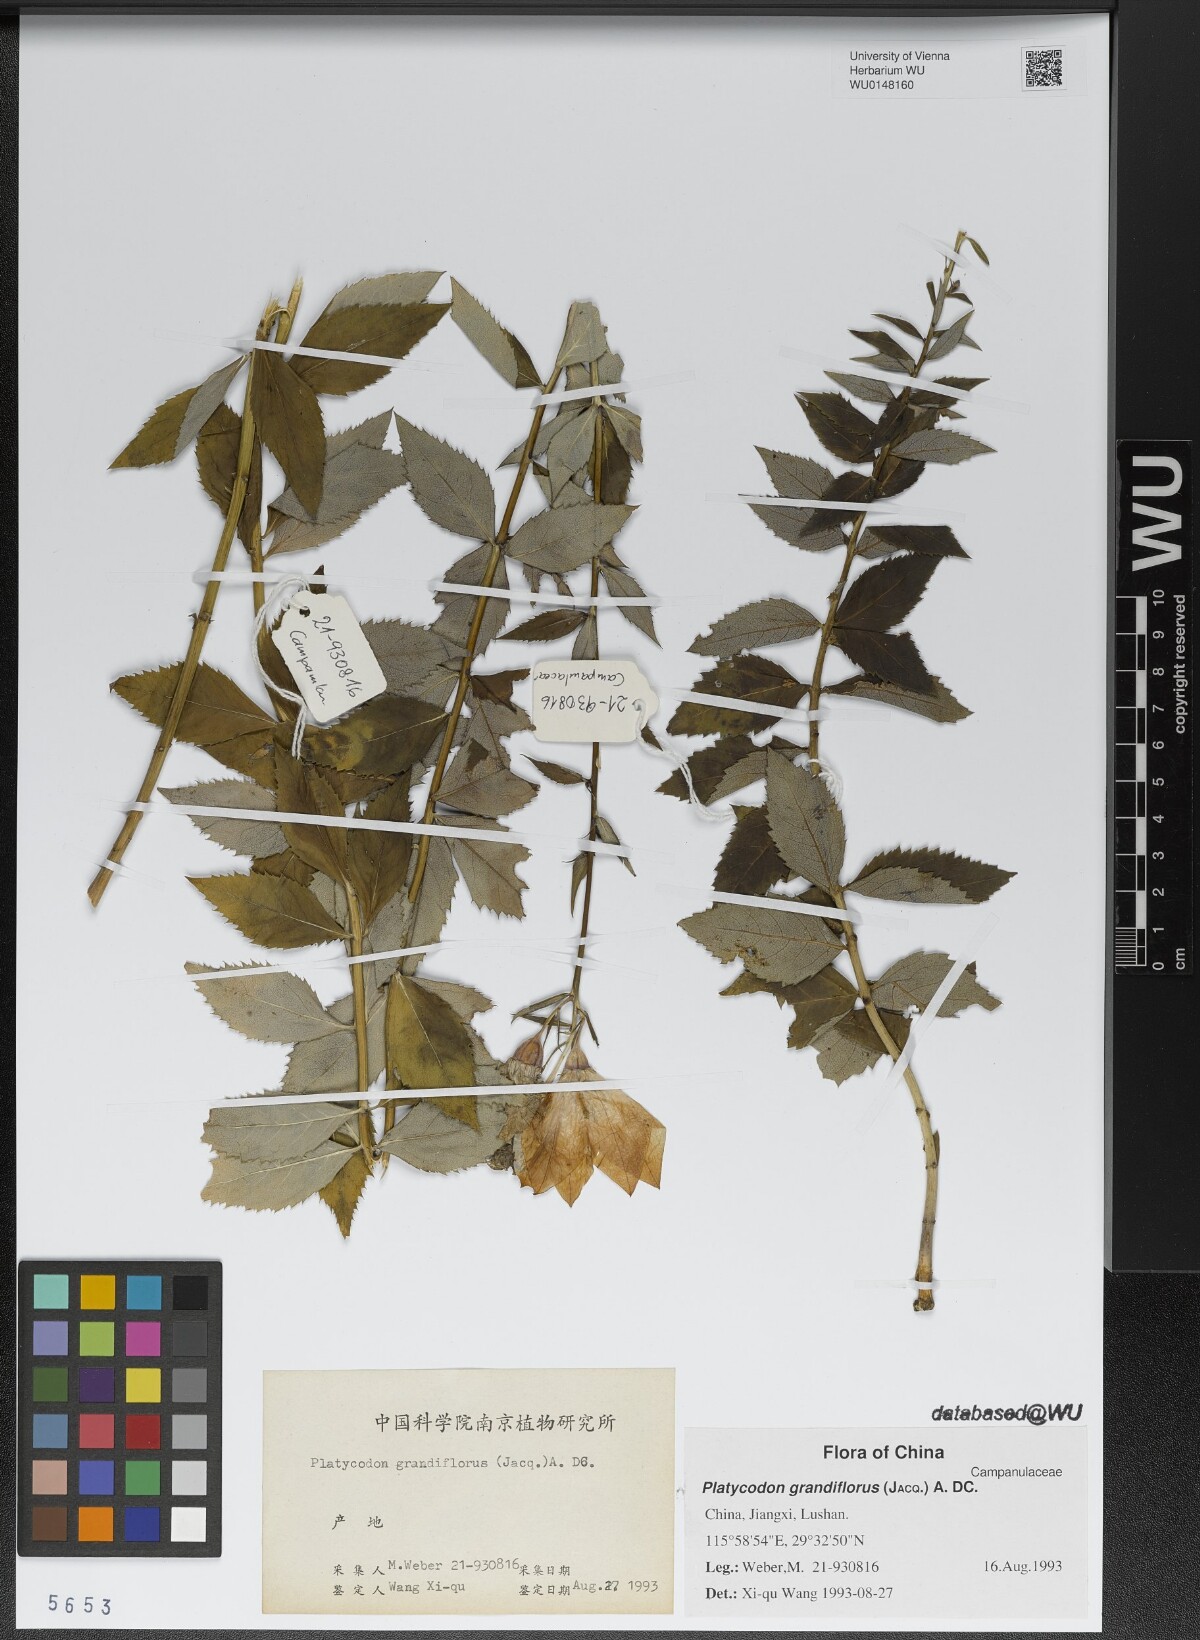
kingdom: Plantae
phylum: Tracheophyta
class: Magnoliopsida
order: Asterales
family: Campanulaceae
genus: Platycodon
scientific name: Platycodon grandiflorus
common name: Balloon-flower
